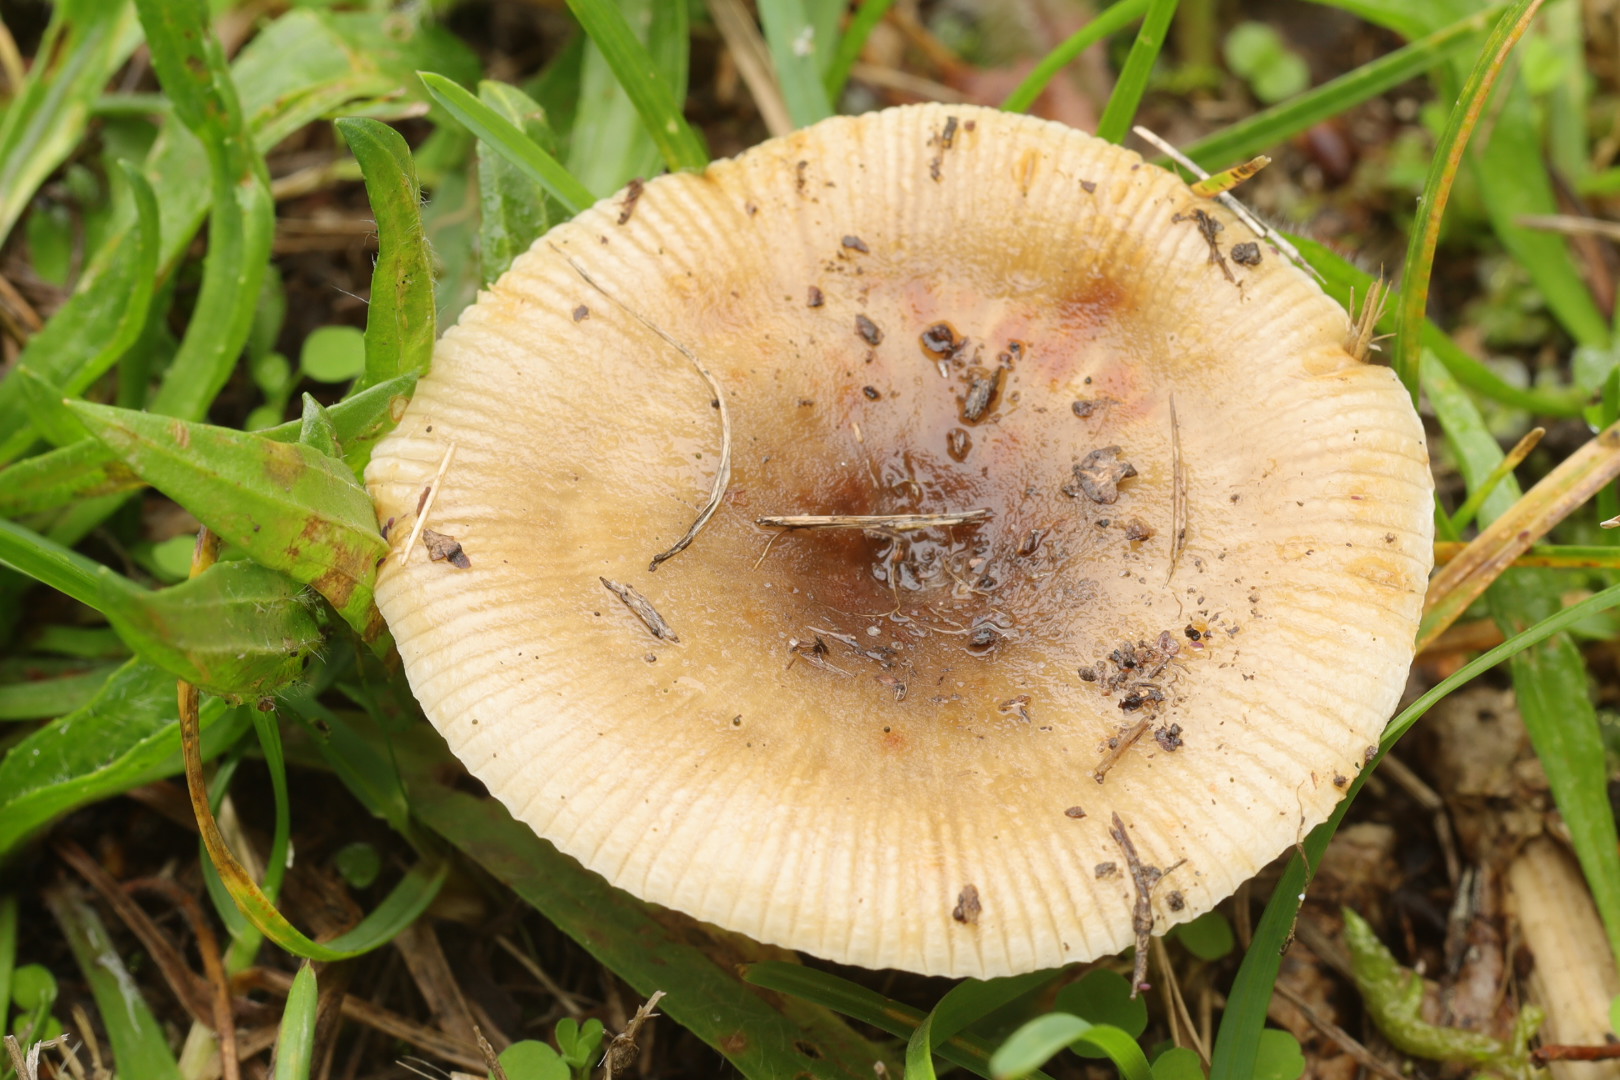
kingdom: Fungi
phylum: Basidiomycota
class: Agaricomycetes
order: Russulales
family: Russulaceae
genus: Russula
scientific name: Russula recondita
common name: mild kam-skørhat
